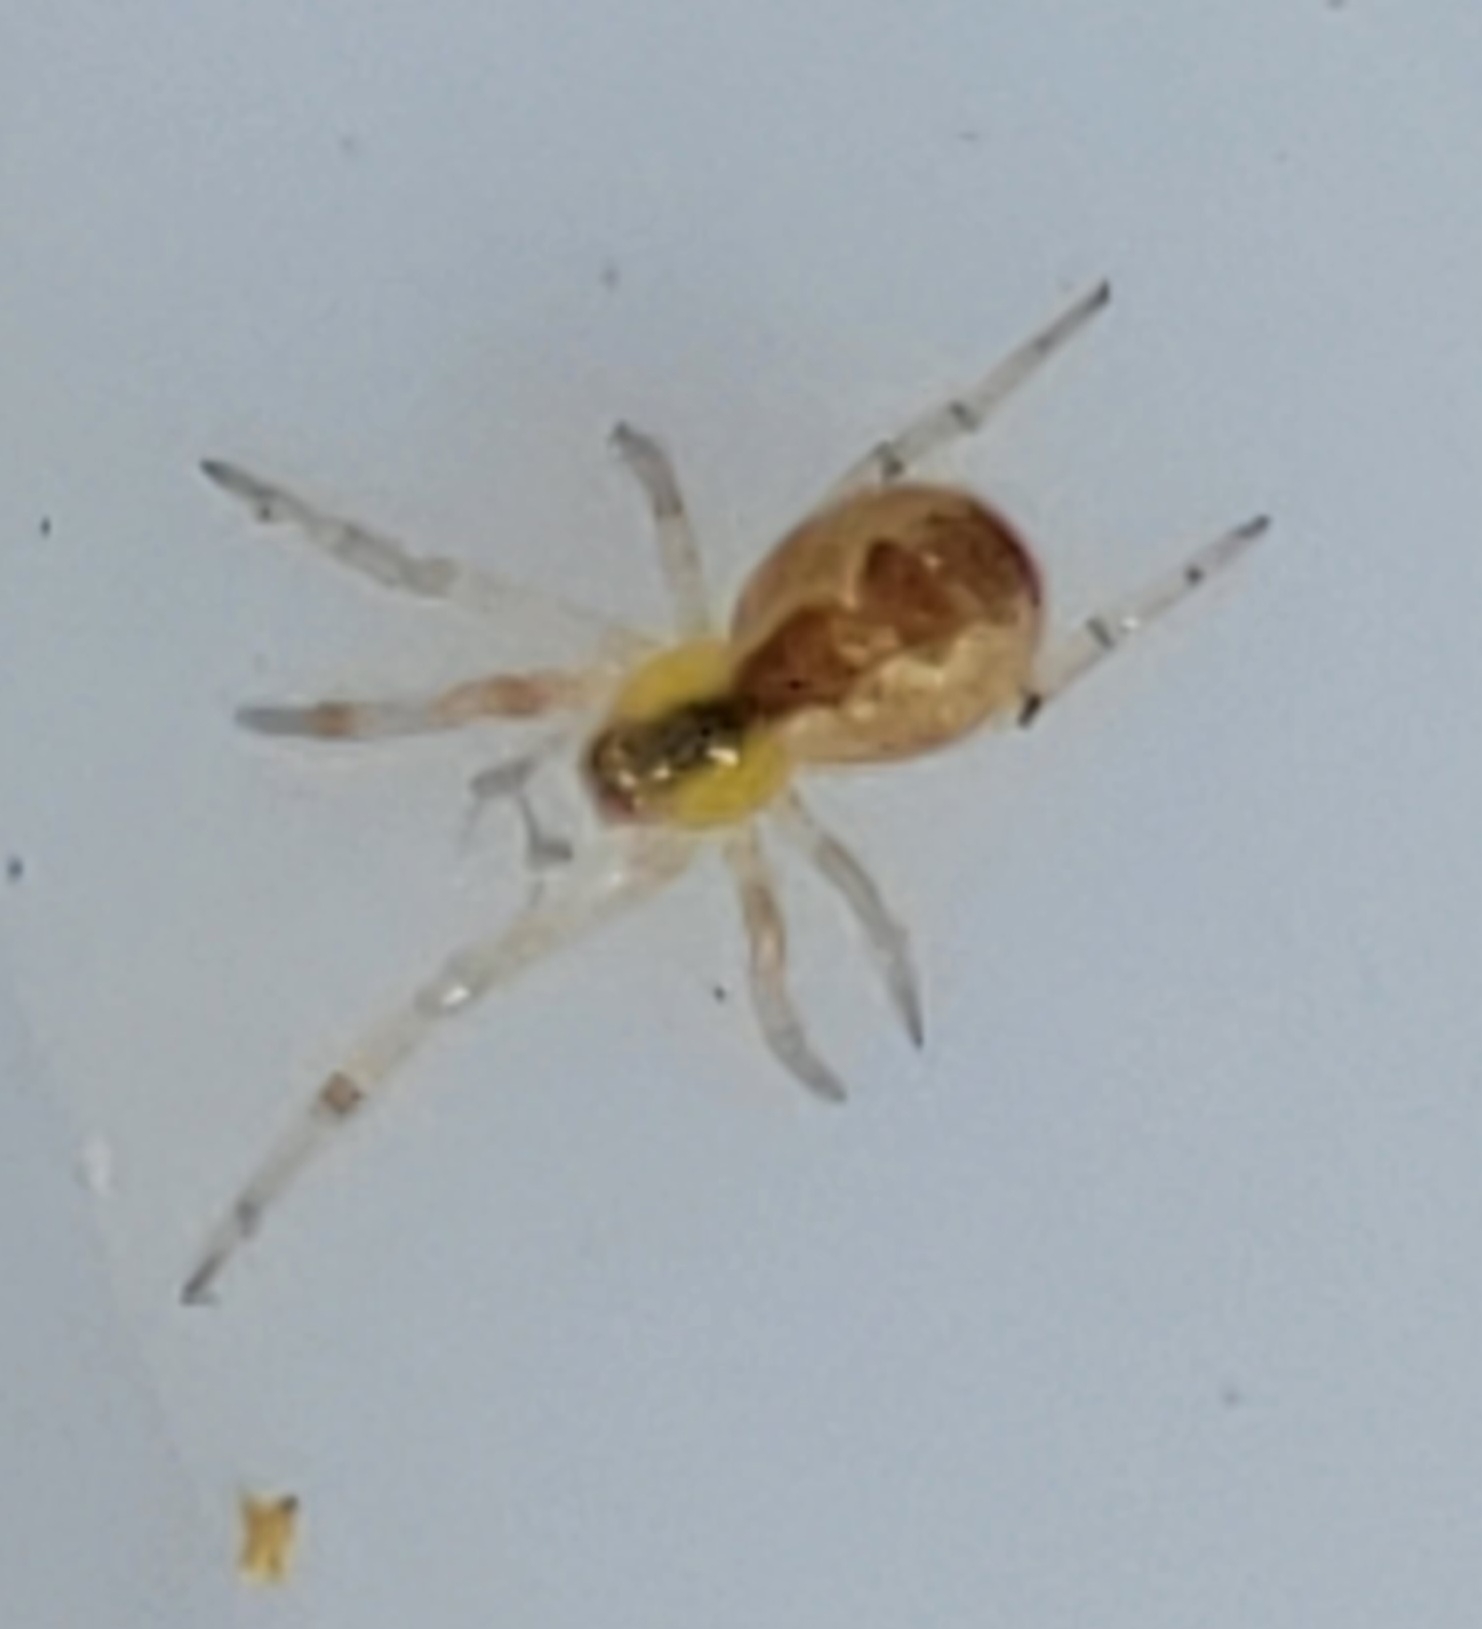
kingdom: Animalia
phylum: Arthropoda
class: Arachnida
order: Araneae
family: Theridiidae
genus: Anelosimus
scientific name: Anelosimus vittatus
